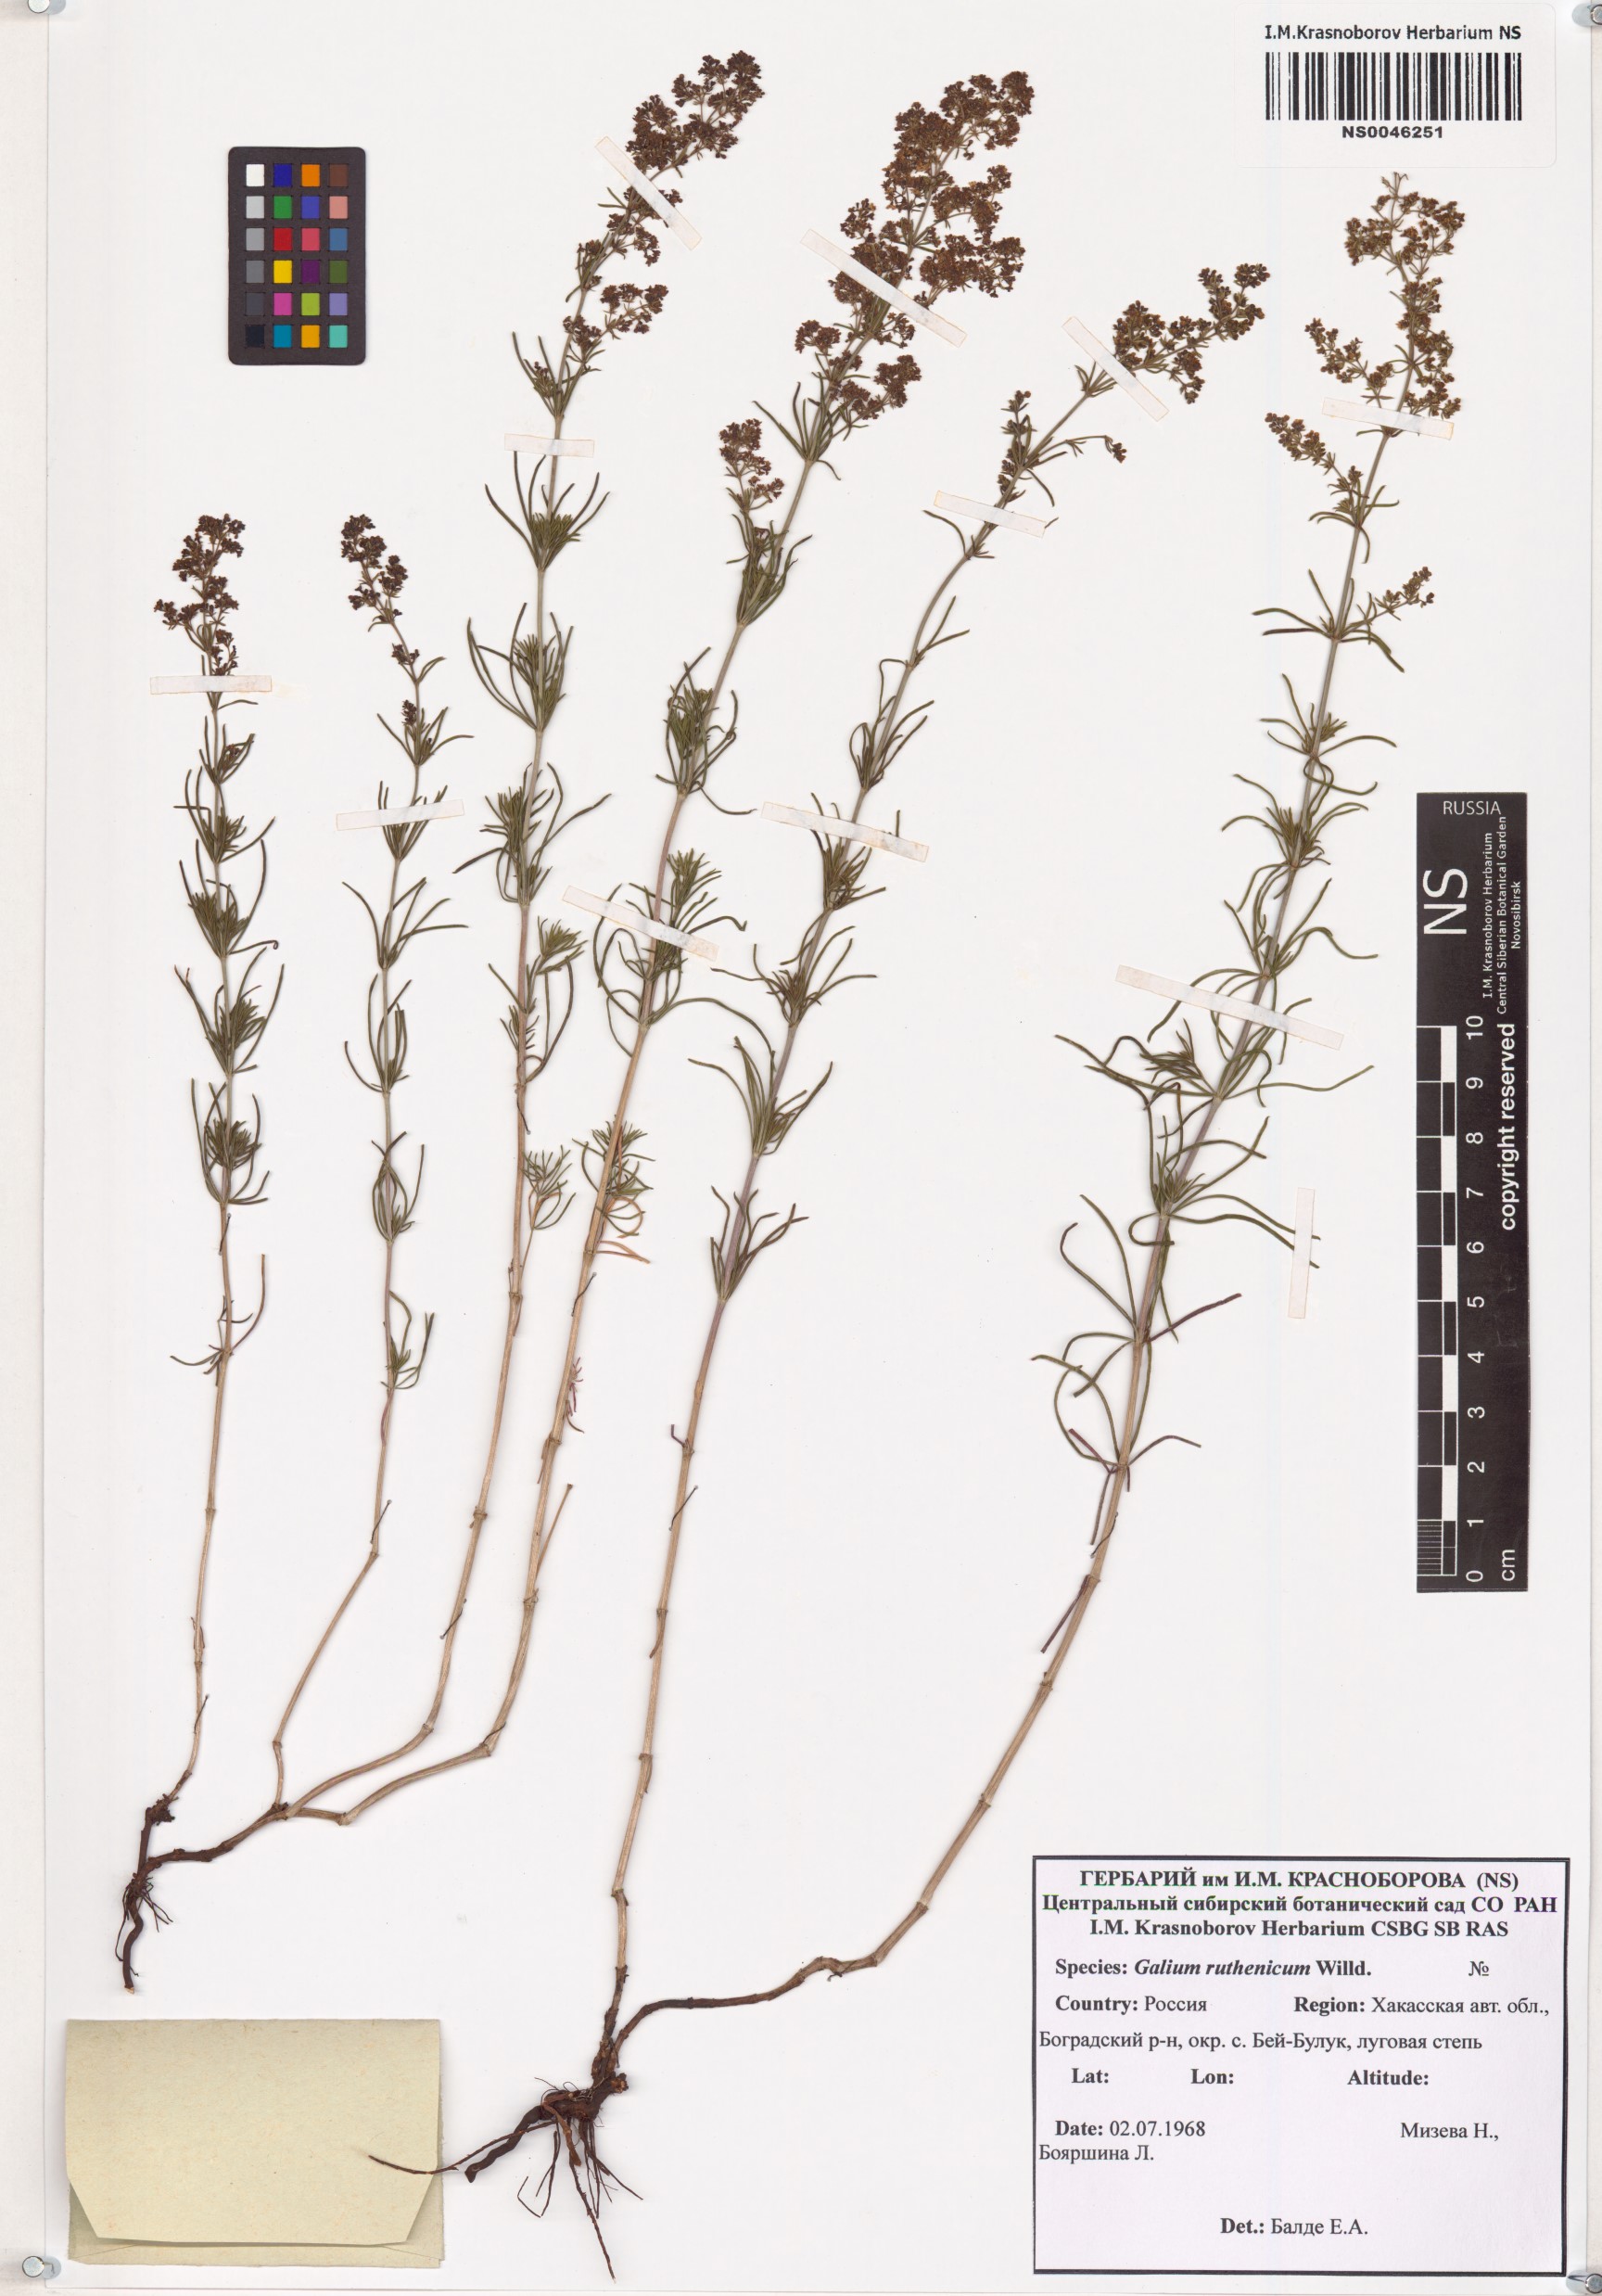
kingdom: Plantae
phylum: Tracheophyta
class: Magnoliopsida
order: Gentianales
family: Rubiaceae
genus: Galium
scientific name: Galium verum
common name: Lady's bedstraw
